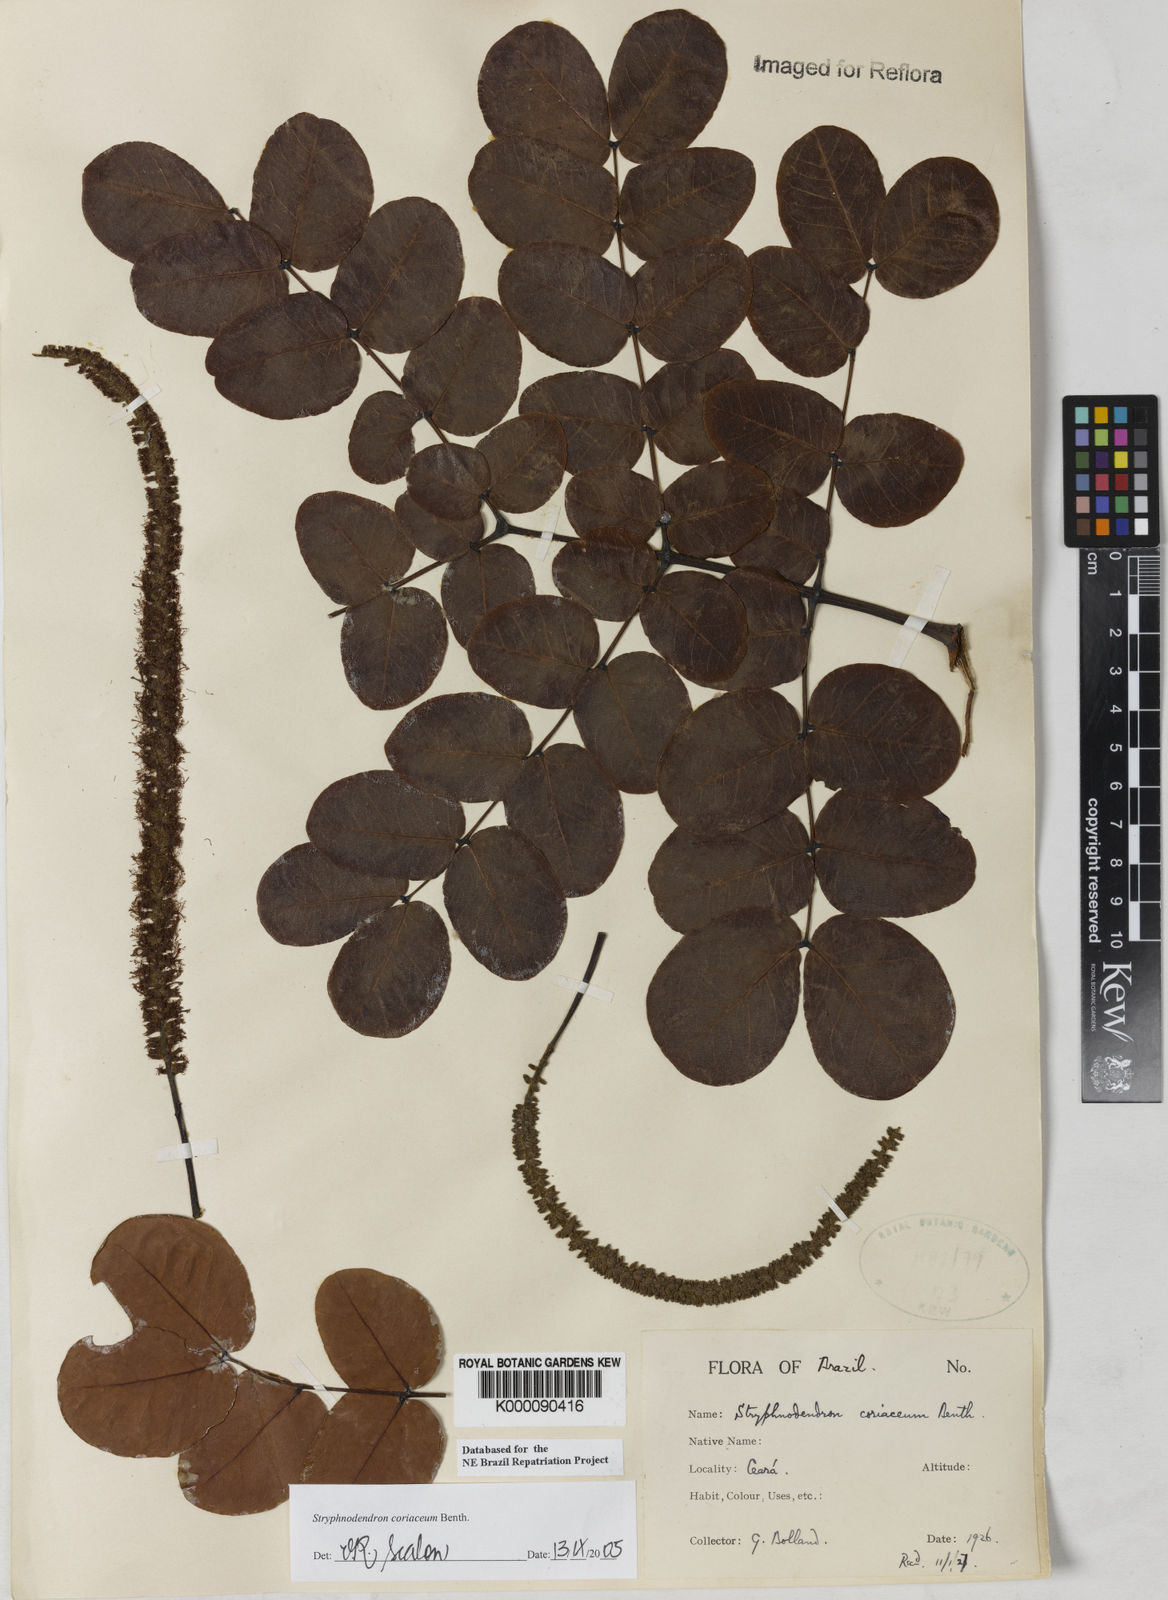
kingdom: Plantae
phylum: Tracheophyta
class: Magnoliopsida
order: Fabales
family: Fabaceae
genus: Stryphnodendron
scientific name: Stryphnodendron coriaceum
